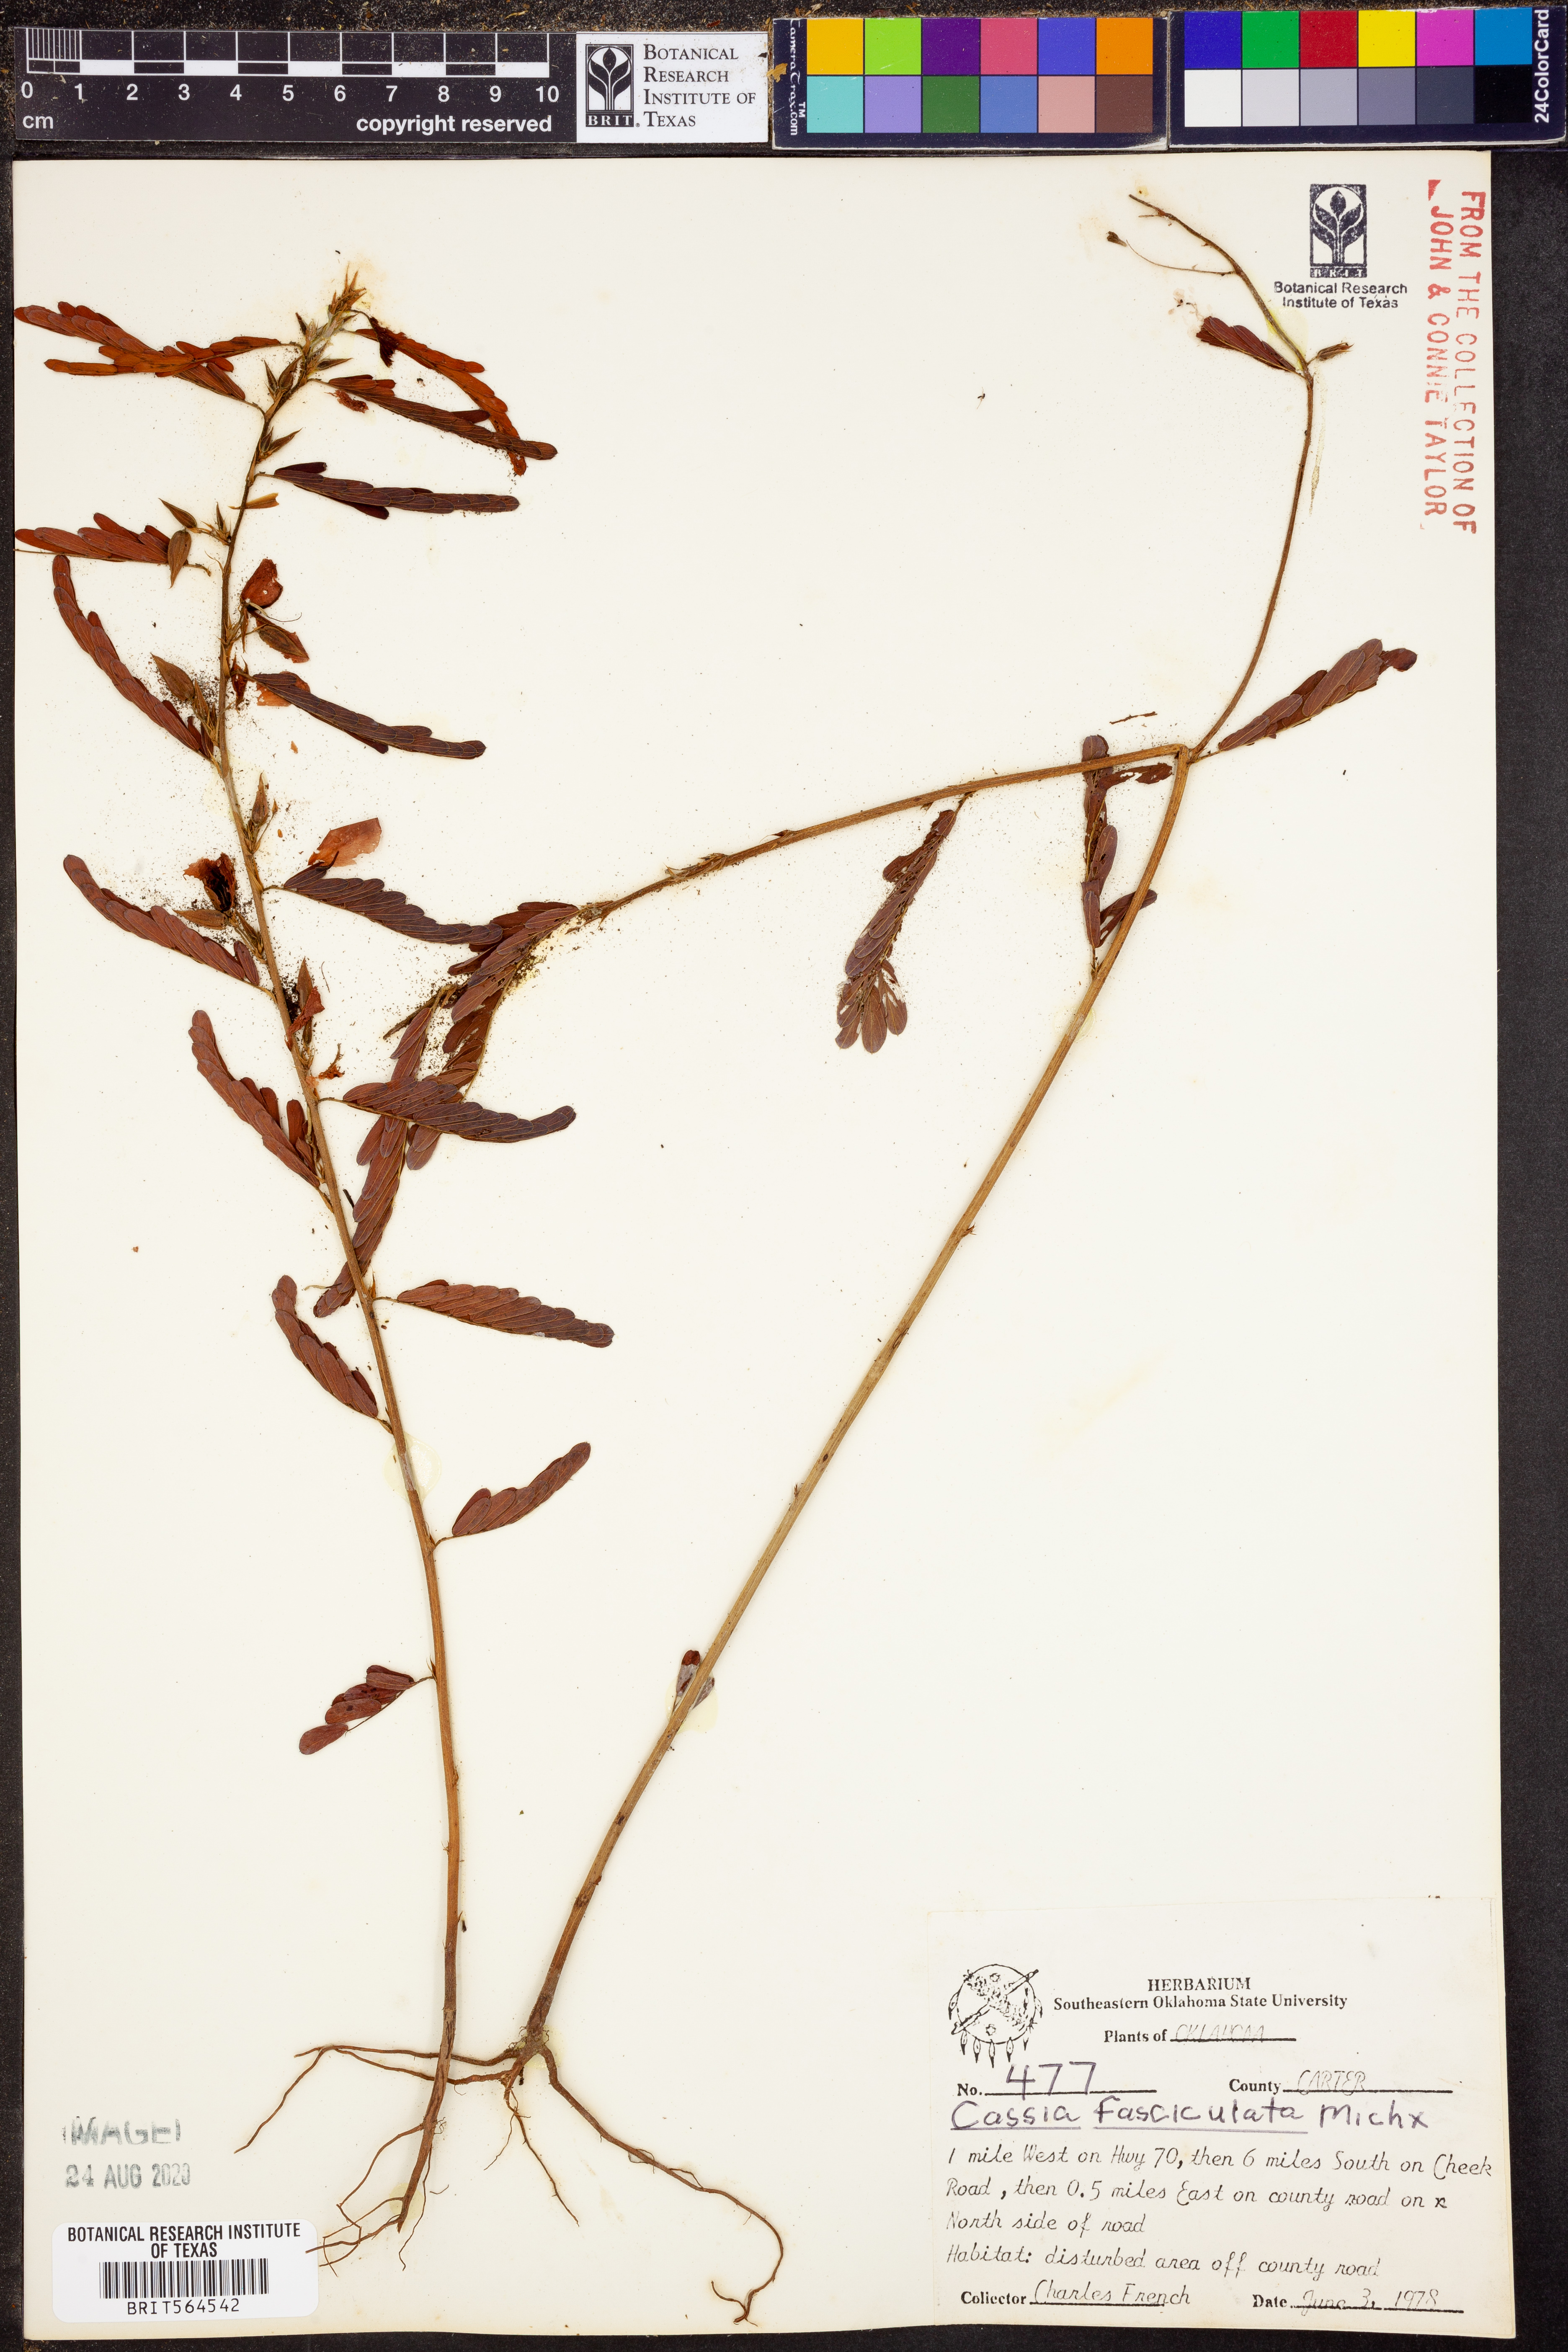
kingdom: Plantae
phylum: Tracheophyta
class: Magnoliopsida
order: Fabales
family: Fabaceae
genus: Chamaecrista
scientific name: Chamaecrista fasciculata
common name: Golden cassia
